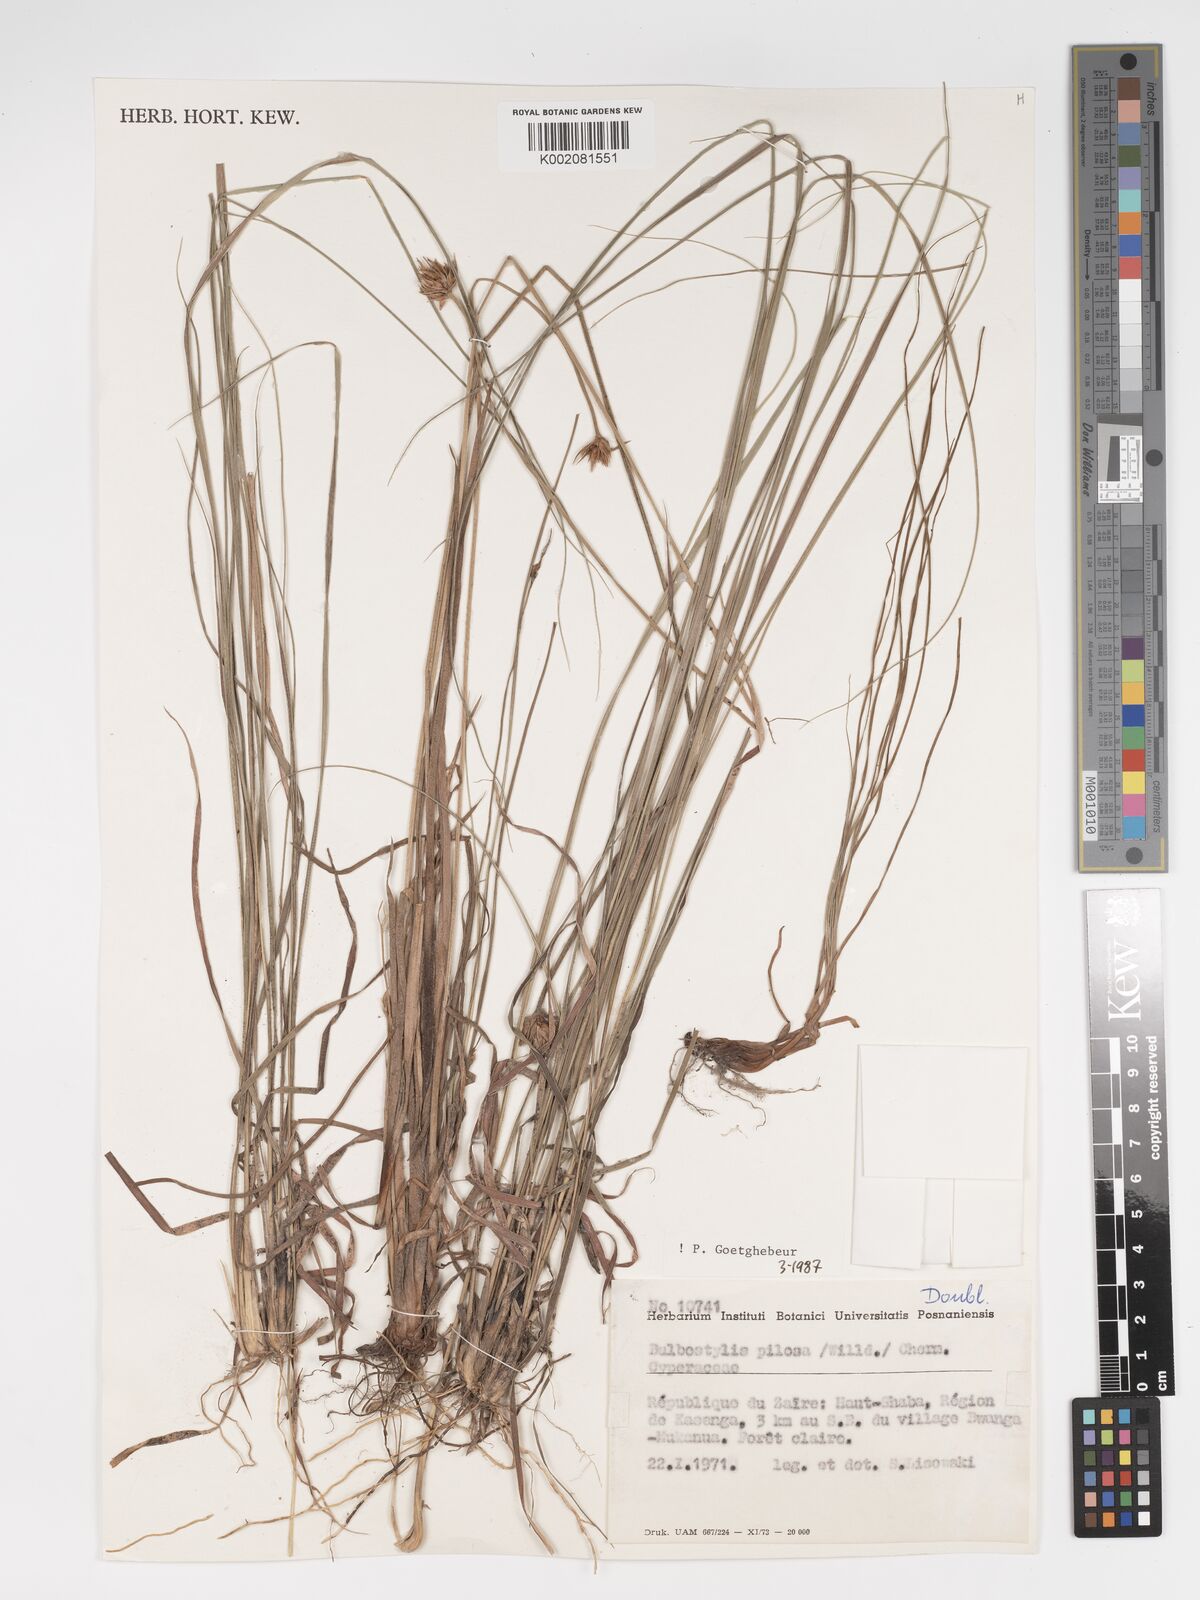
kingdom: Plantae
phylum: Tracheophyta
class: Liliopsida
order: Poales
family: Cyperaceae
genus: Bulbostylis
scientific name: Bulbostylis pilosa
